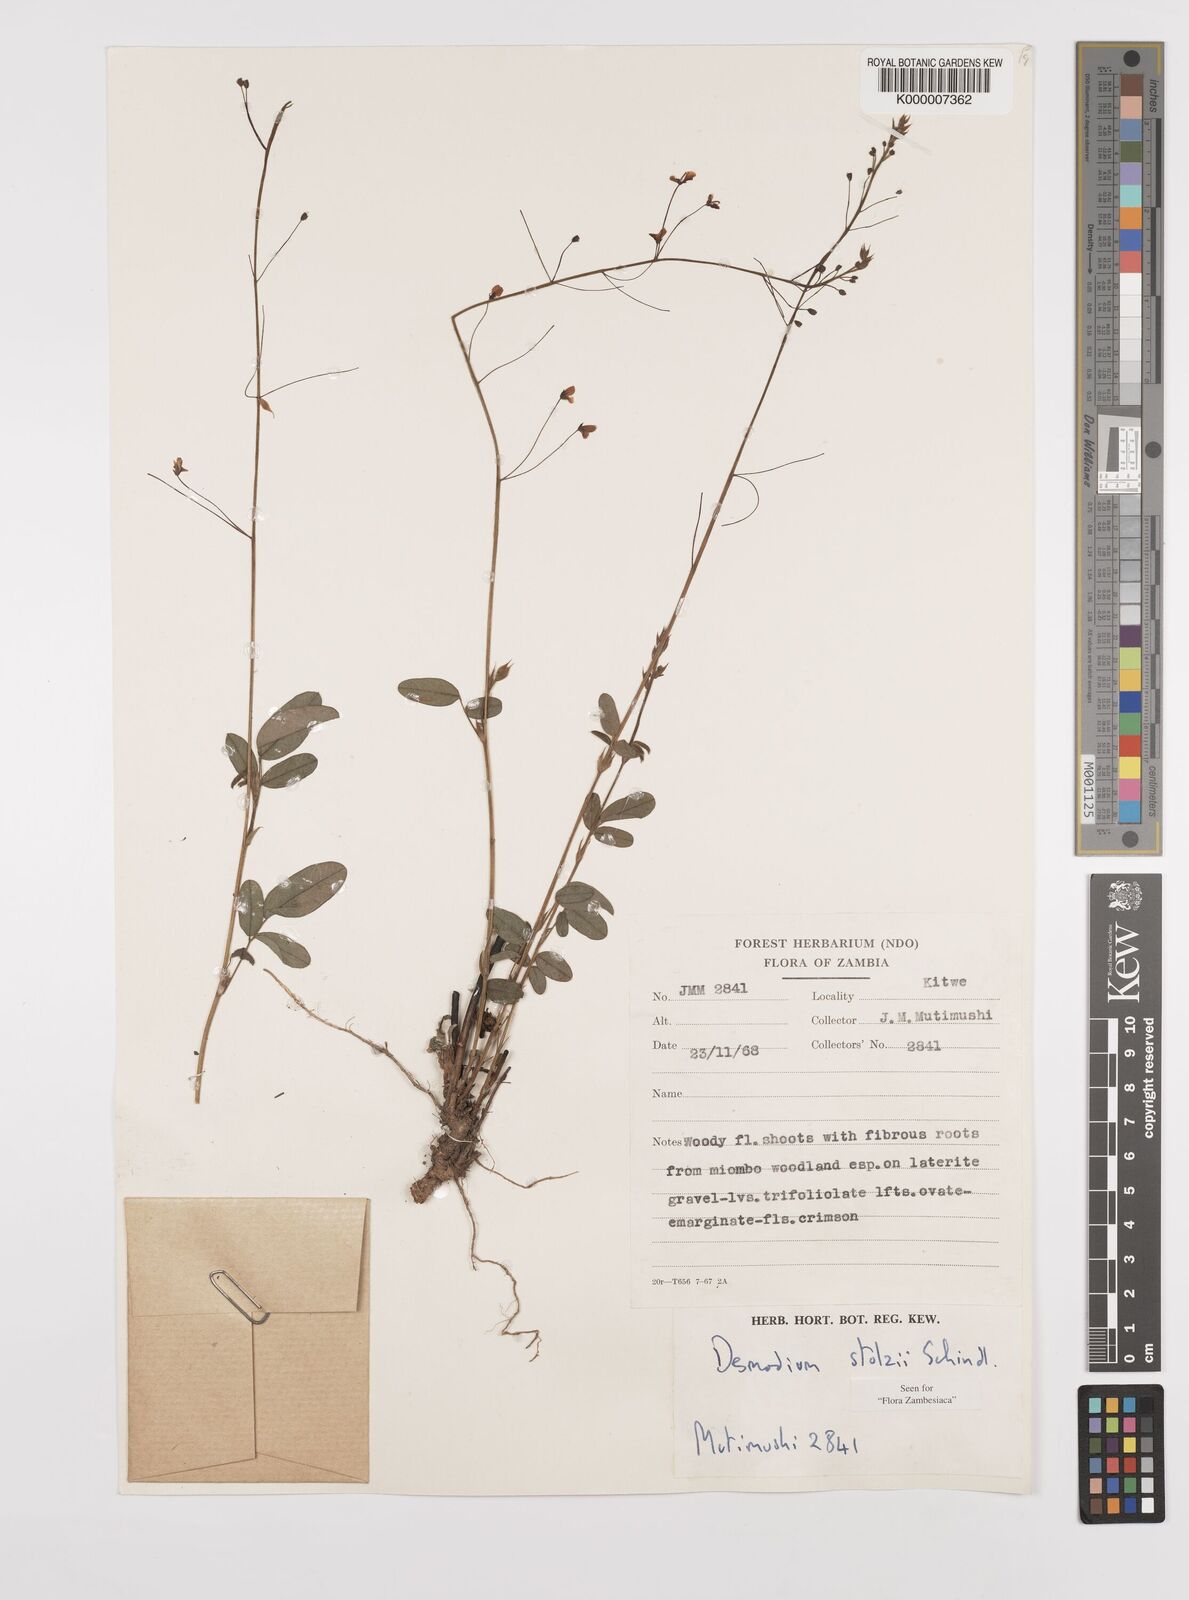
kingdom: Plantae
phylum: Tracheophyta
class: Magnoliopsida
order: Fabales
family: Fabaceae
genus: Grona
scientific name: Grona stolzii
